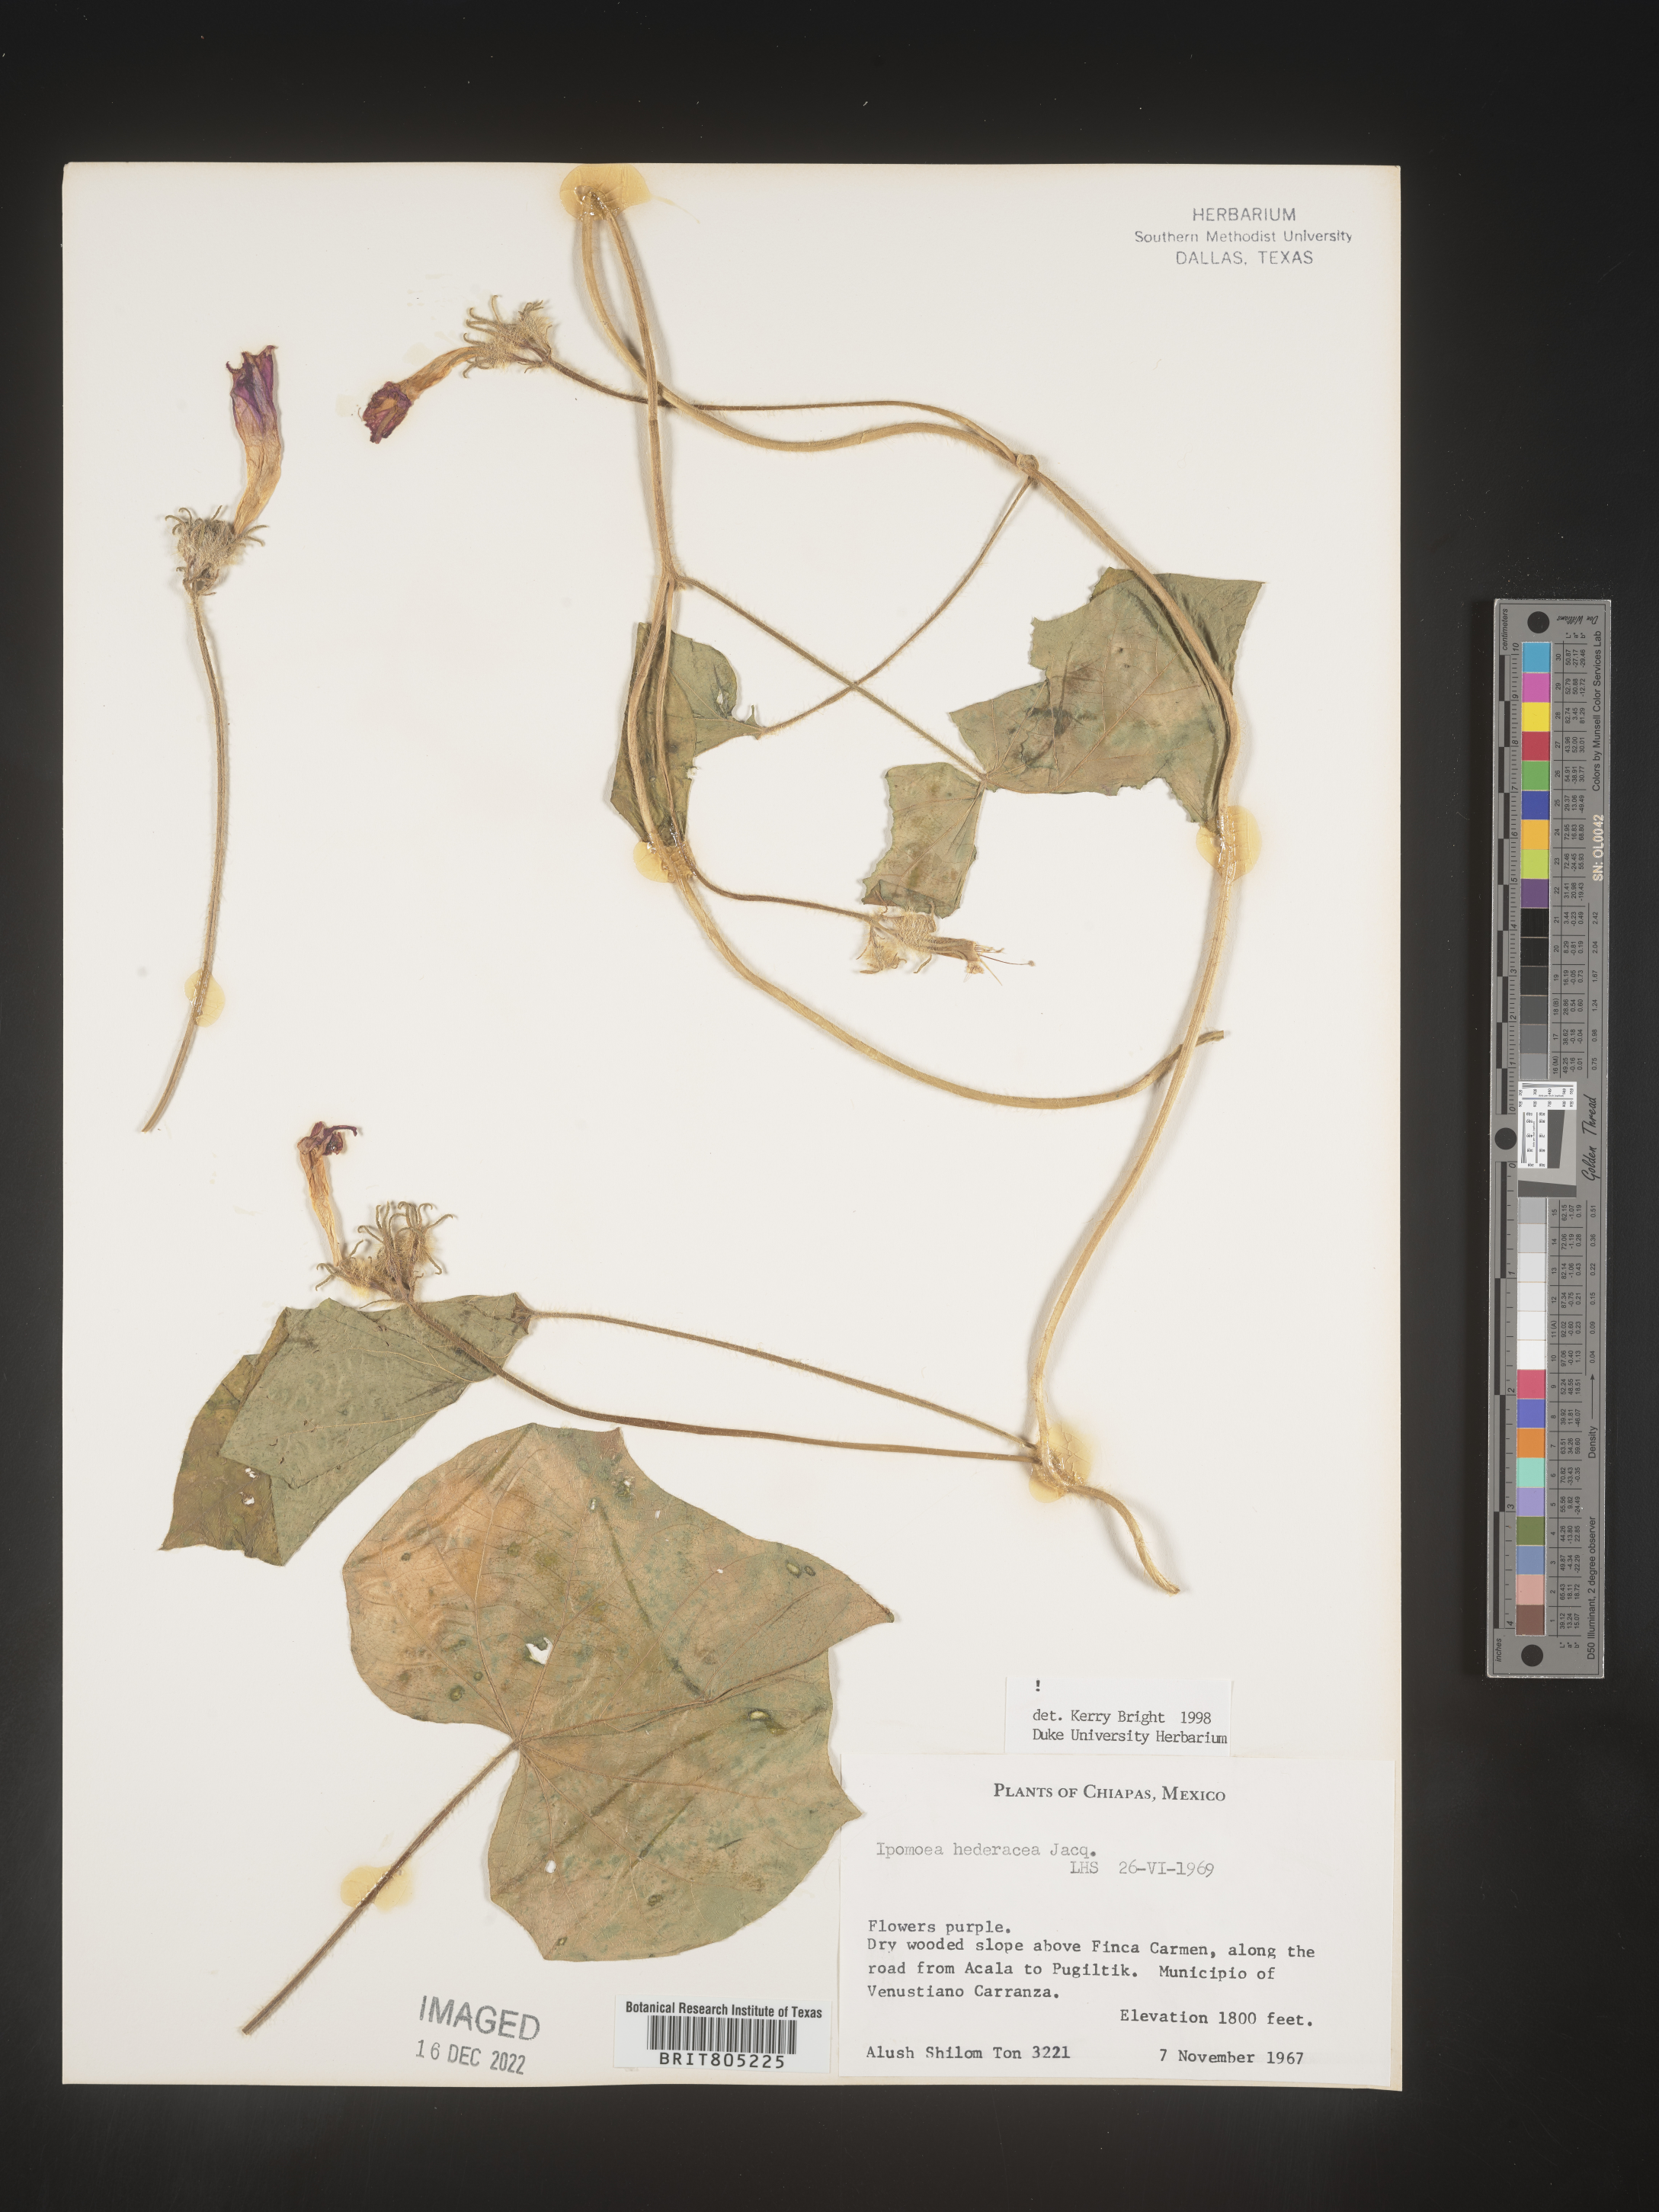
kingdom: Plantae
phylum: Tracheophyta
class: Magnoliopsida
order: Solanales
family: Convolvulaceae
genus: Ipomoea
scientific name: Ipomoea
